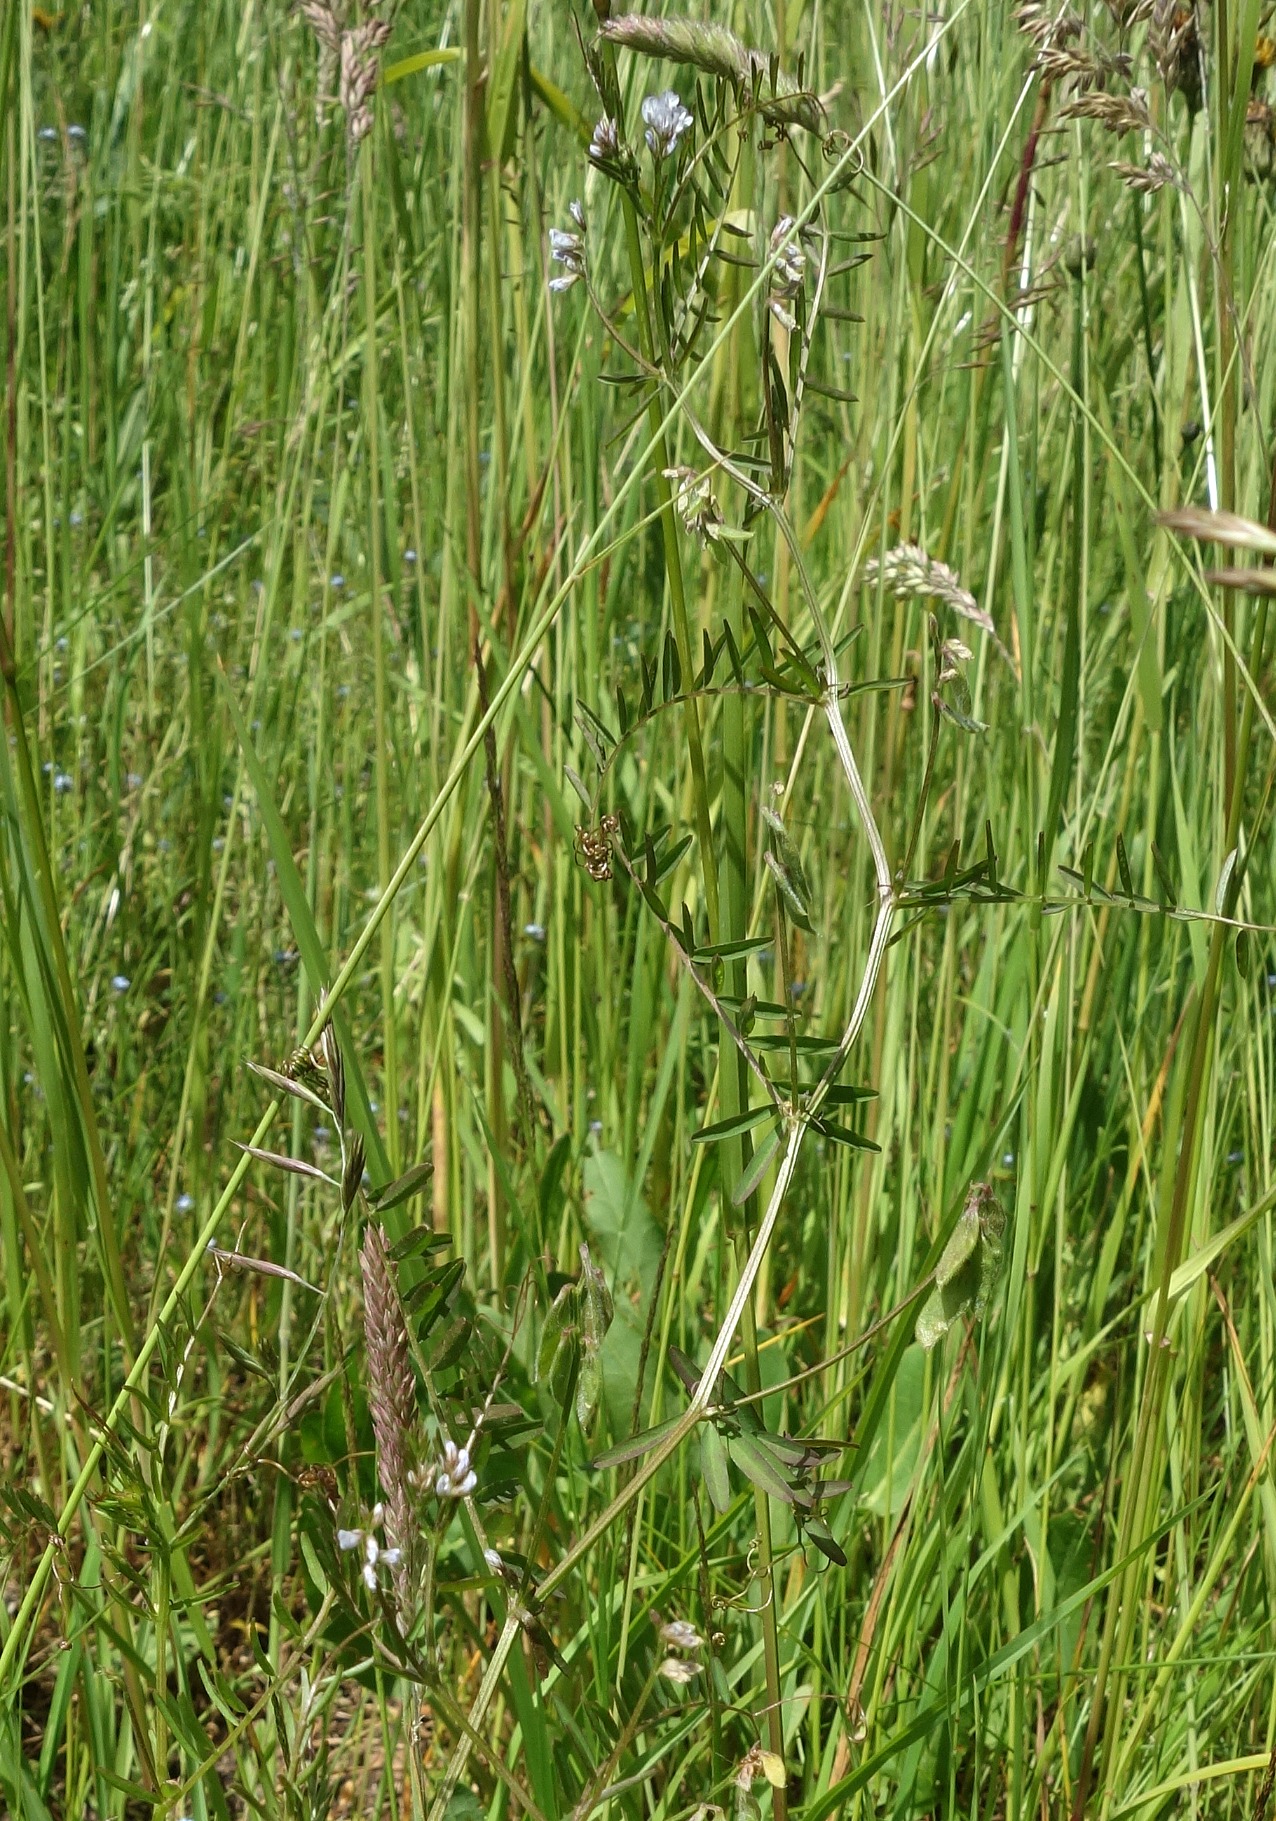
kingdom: Plantae
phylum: Tracheophyta
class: Magnoliopsida
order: Fabales
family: Fabaceae
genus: Vicia
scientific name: Vicia hirsuta
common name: Tofrøet vikke
